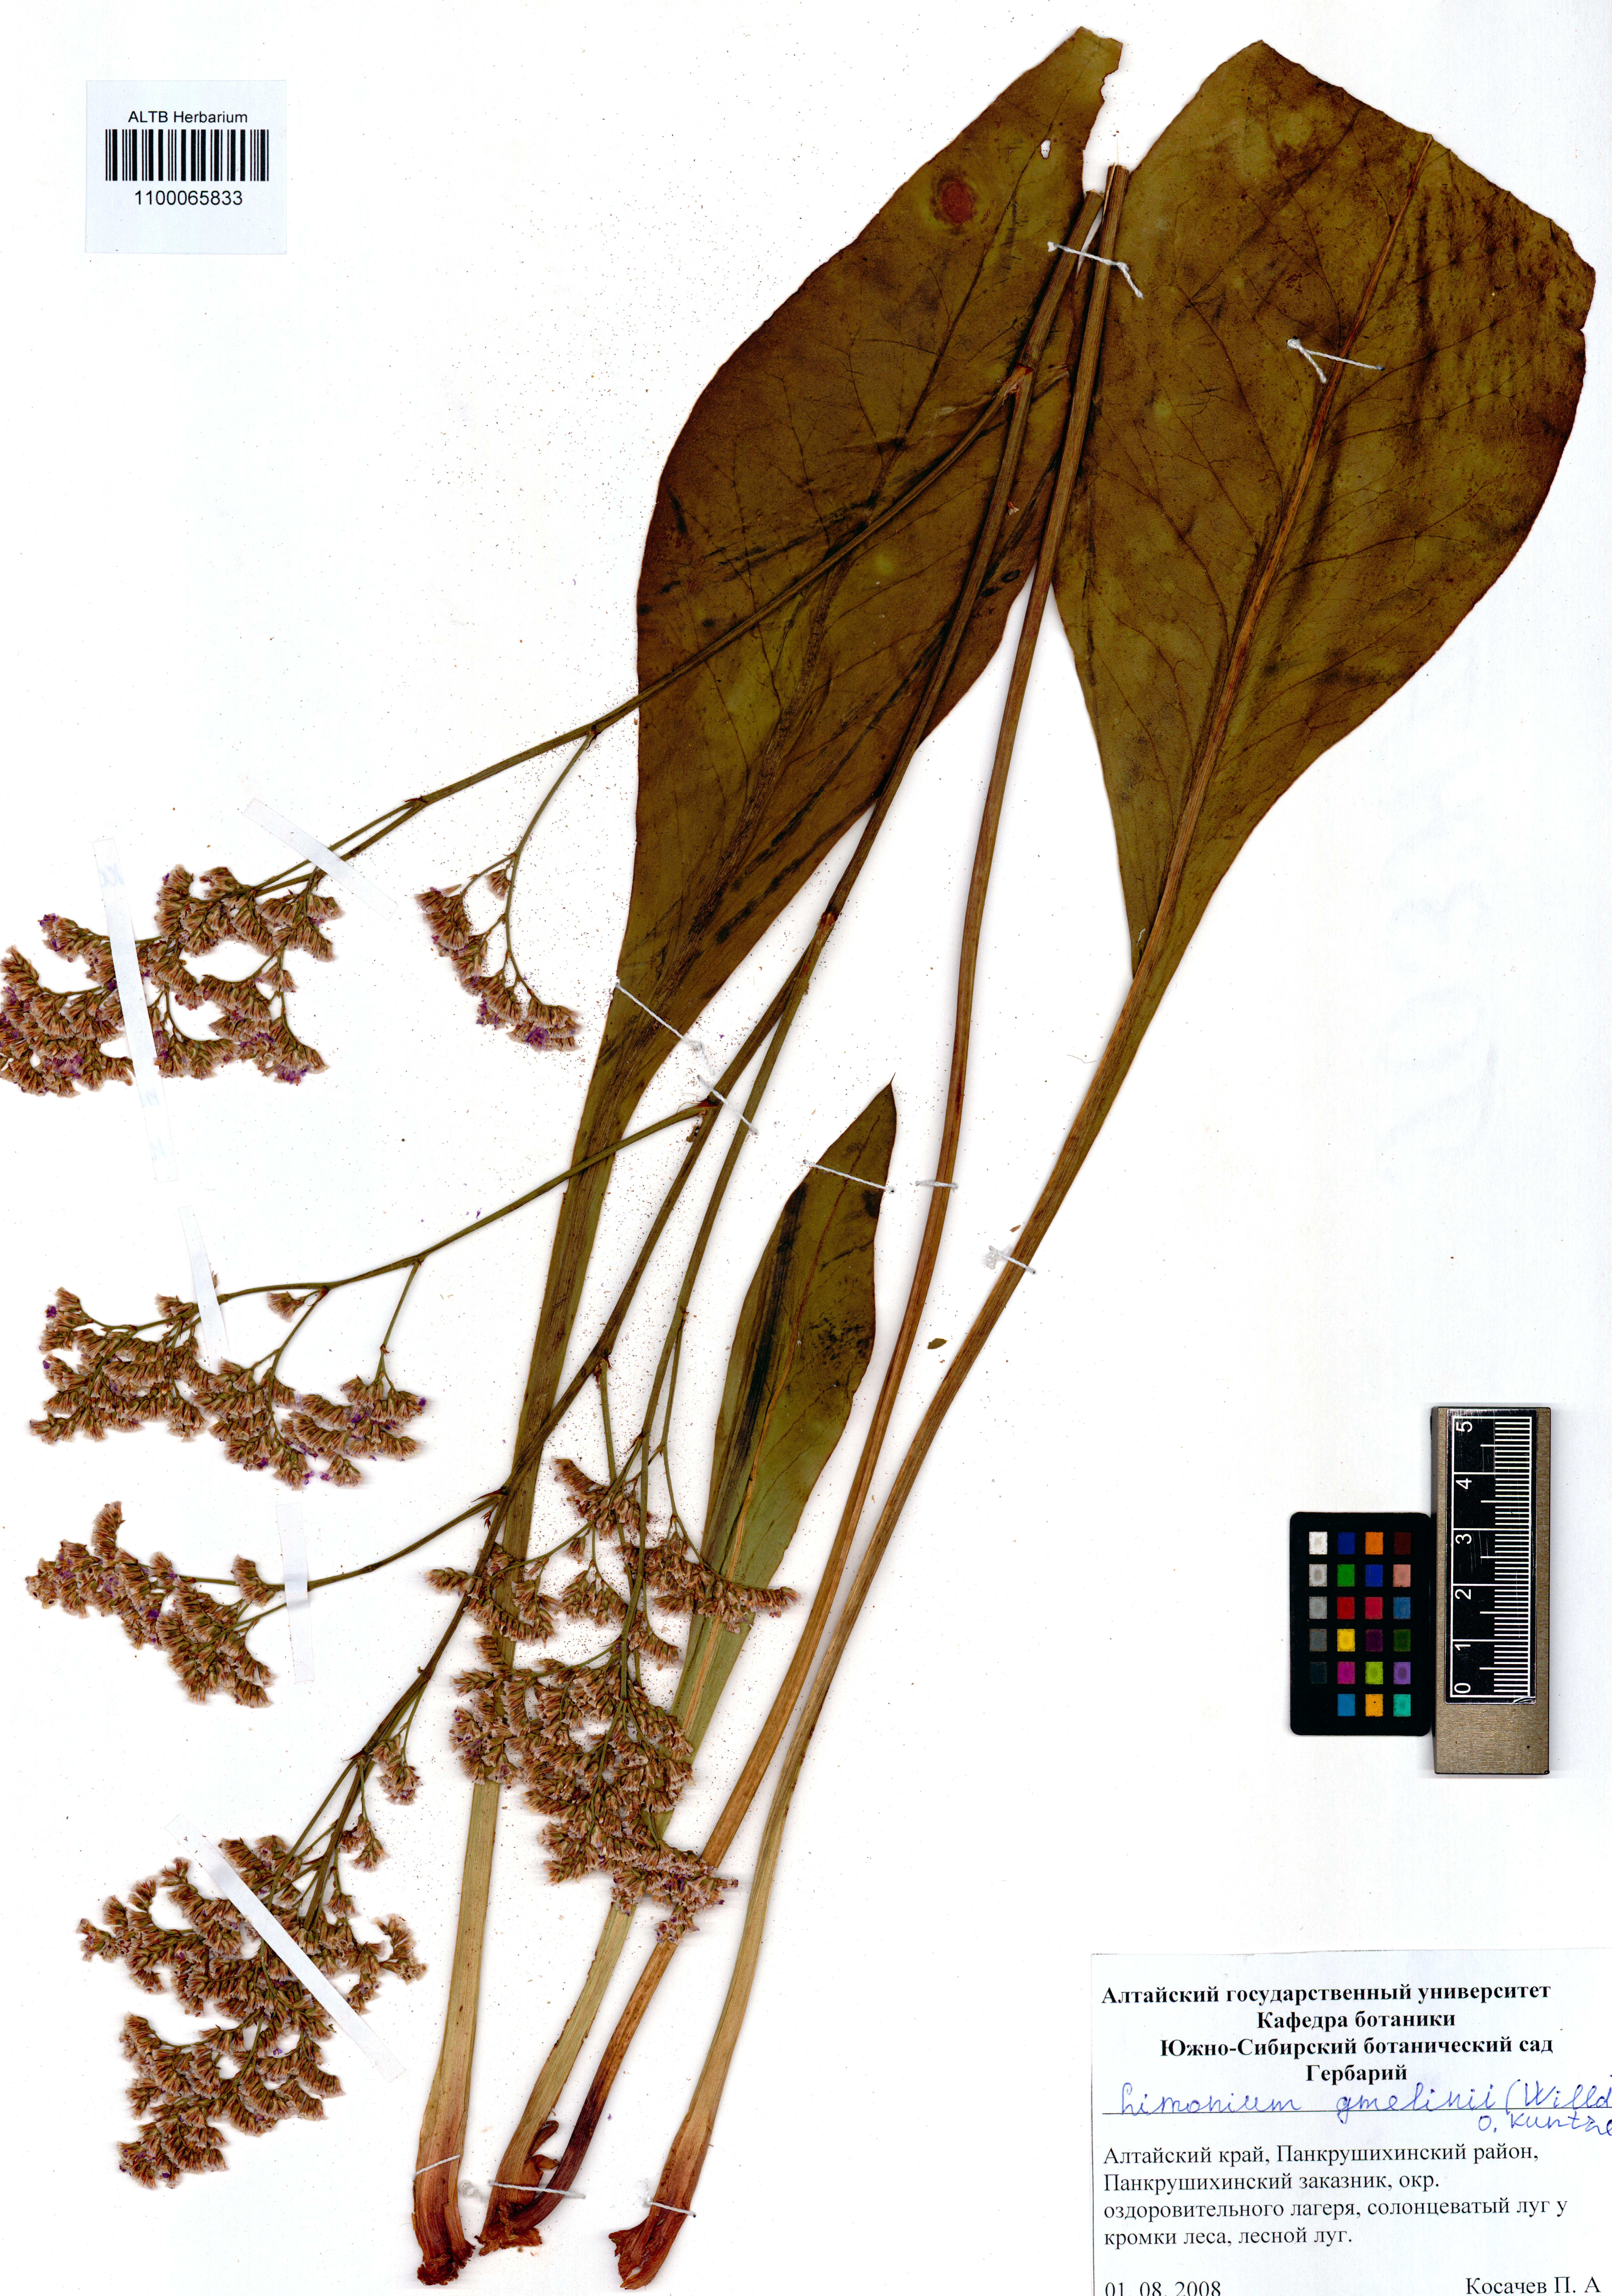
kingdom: Plantae
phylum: Tracheophyta
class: Magnoliopsida
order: Caryophyllales
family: Plumbaginaceae
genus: Limonium
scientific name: Limonium gmelini
